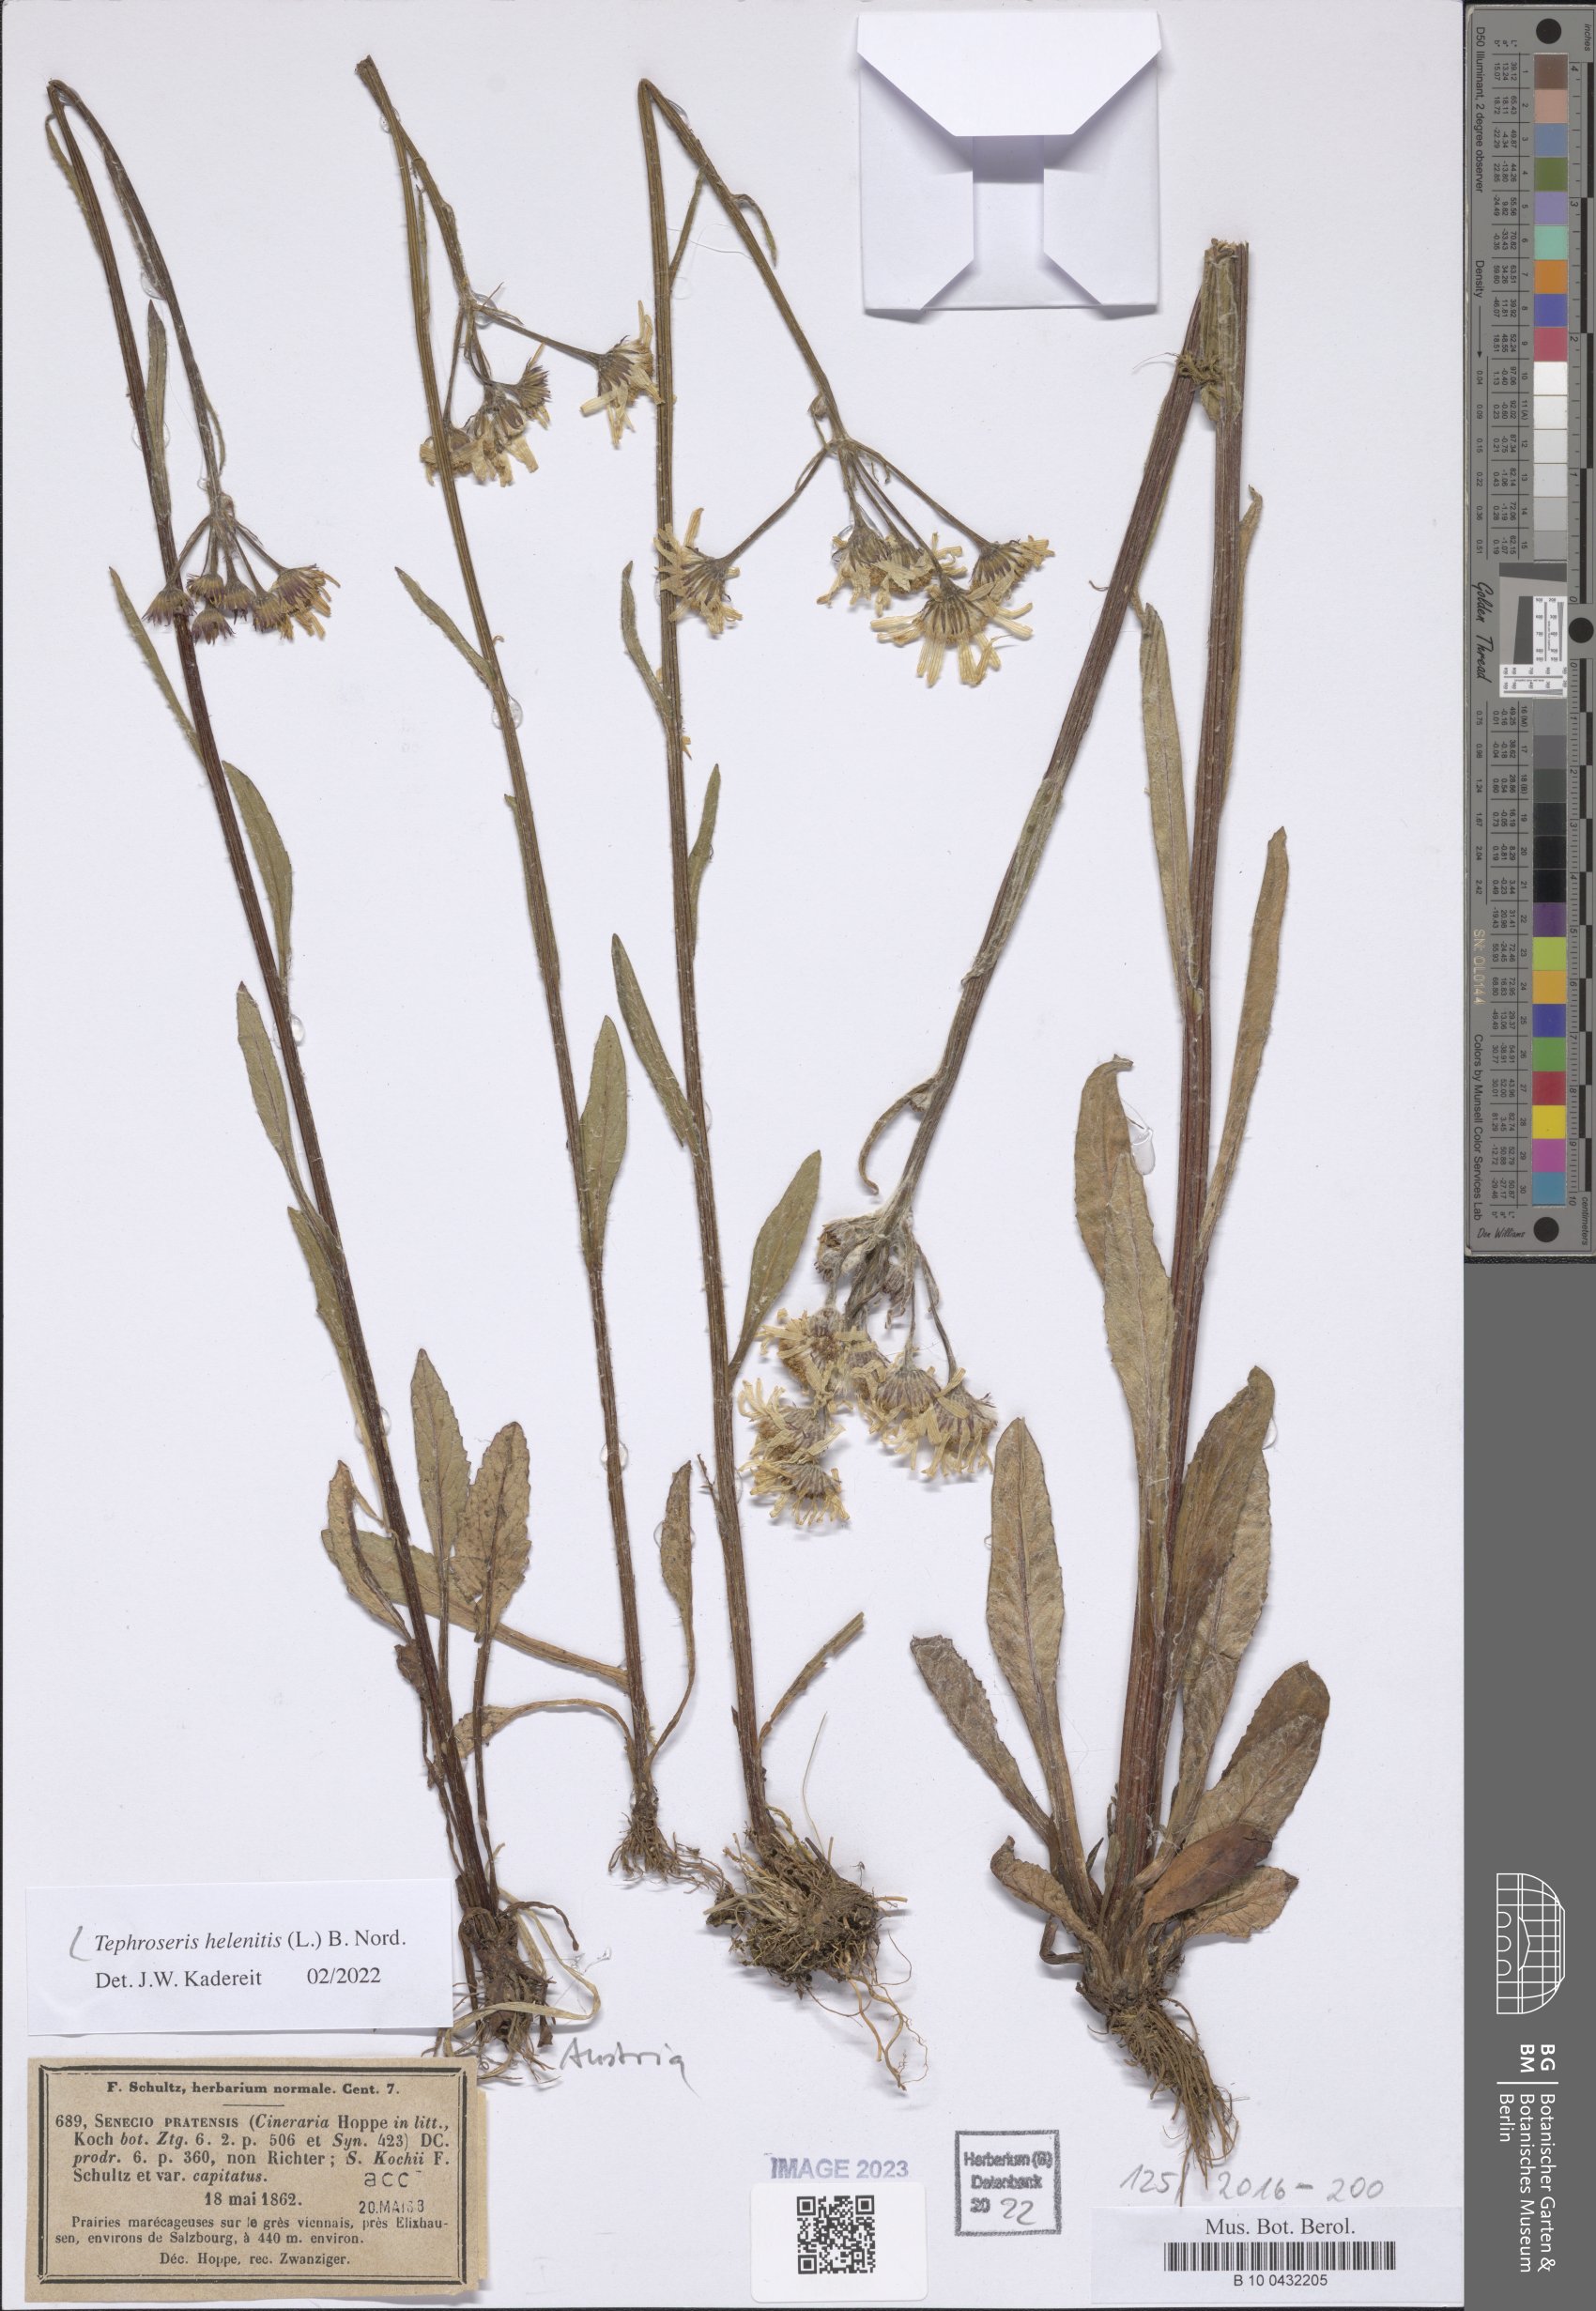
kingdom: Plantae
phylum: Tracheophyta
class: Magnoliopsida
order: Asterales
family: Asteraceae
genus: Tephroseris
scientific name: Tephroseris helenitis
